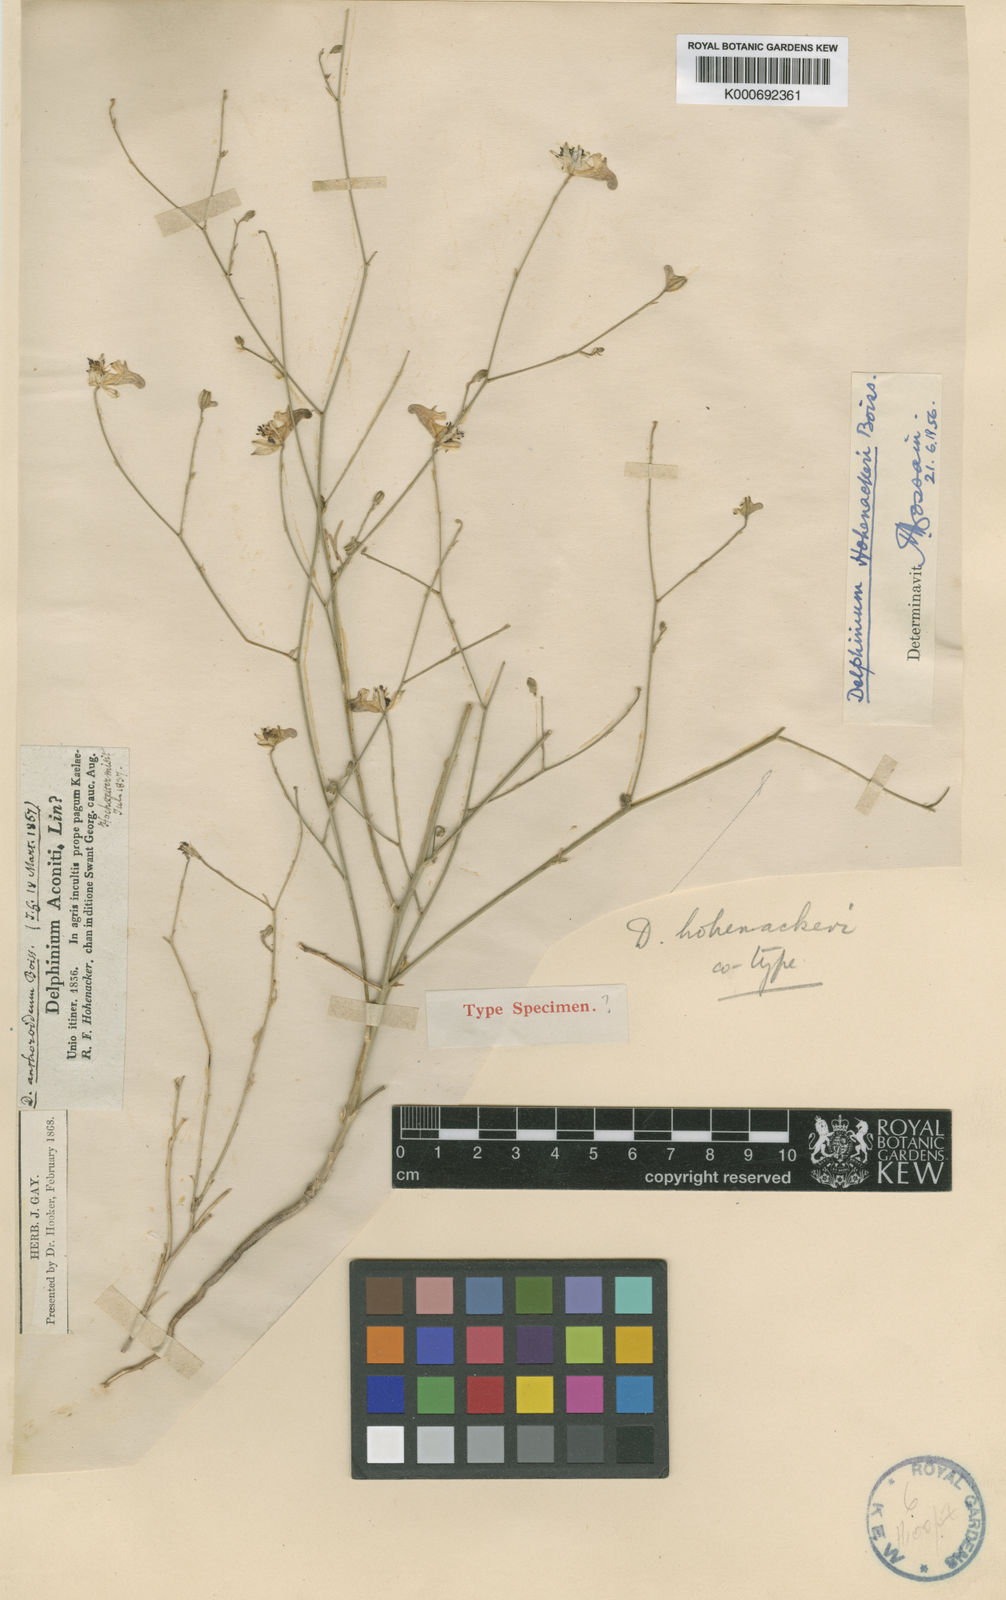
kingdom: Plantae
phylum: Tracheophyta
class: Magnoliopsida
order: Ranunculales
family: Ranunculaceae
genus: Delphinium
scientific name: Delphinium hohenackeri
